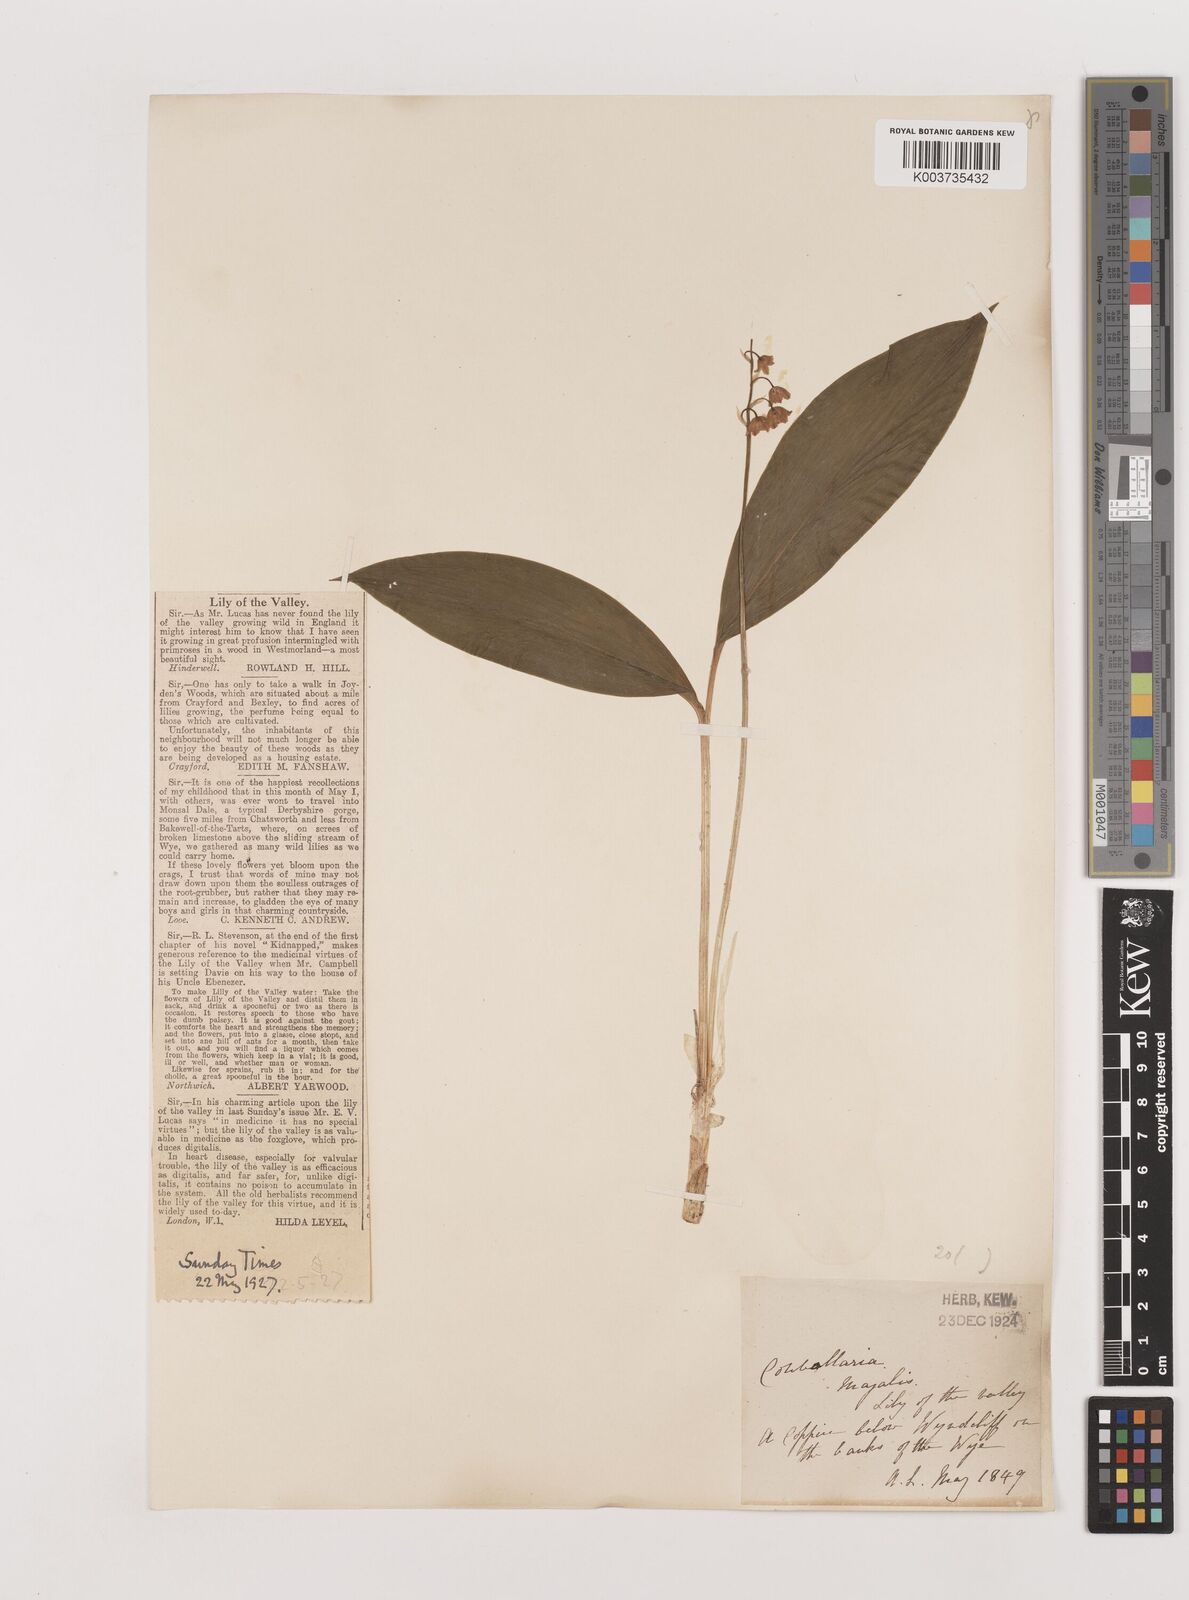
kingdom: Plantae
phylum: Tracheophyta
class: Liliopsida
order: Asparagales
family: Asparagaceae
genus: Convallaria
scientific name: Convallaria majalis
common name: Lily-of-the-valley
